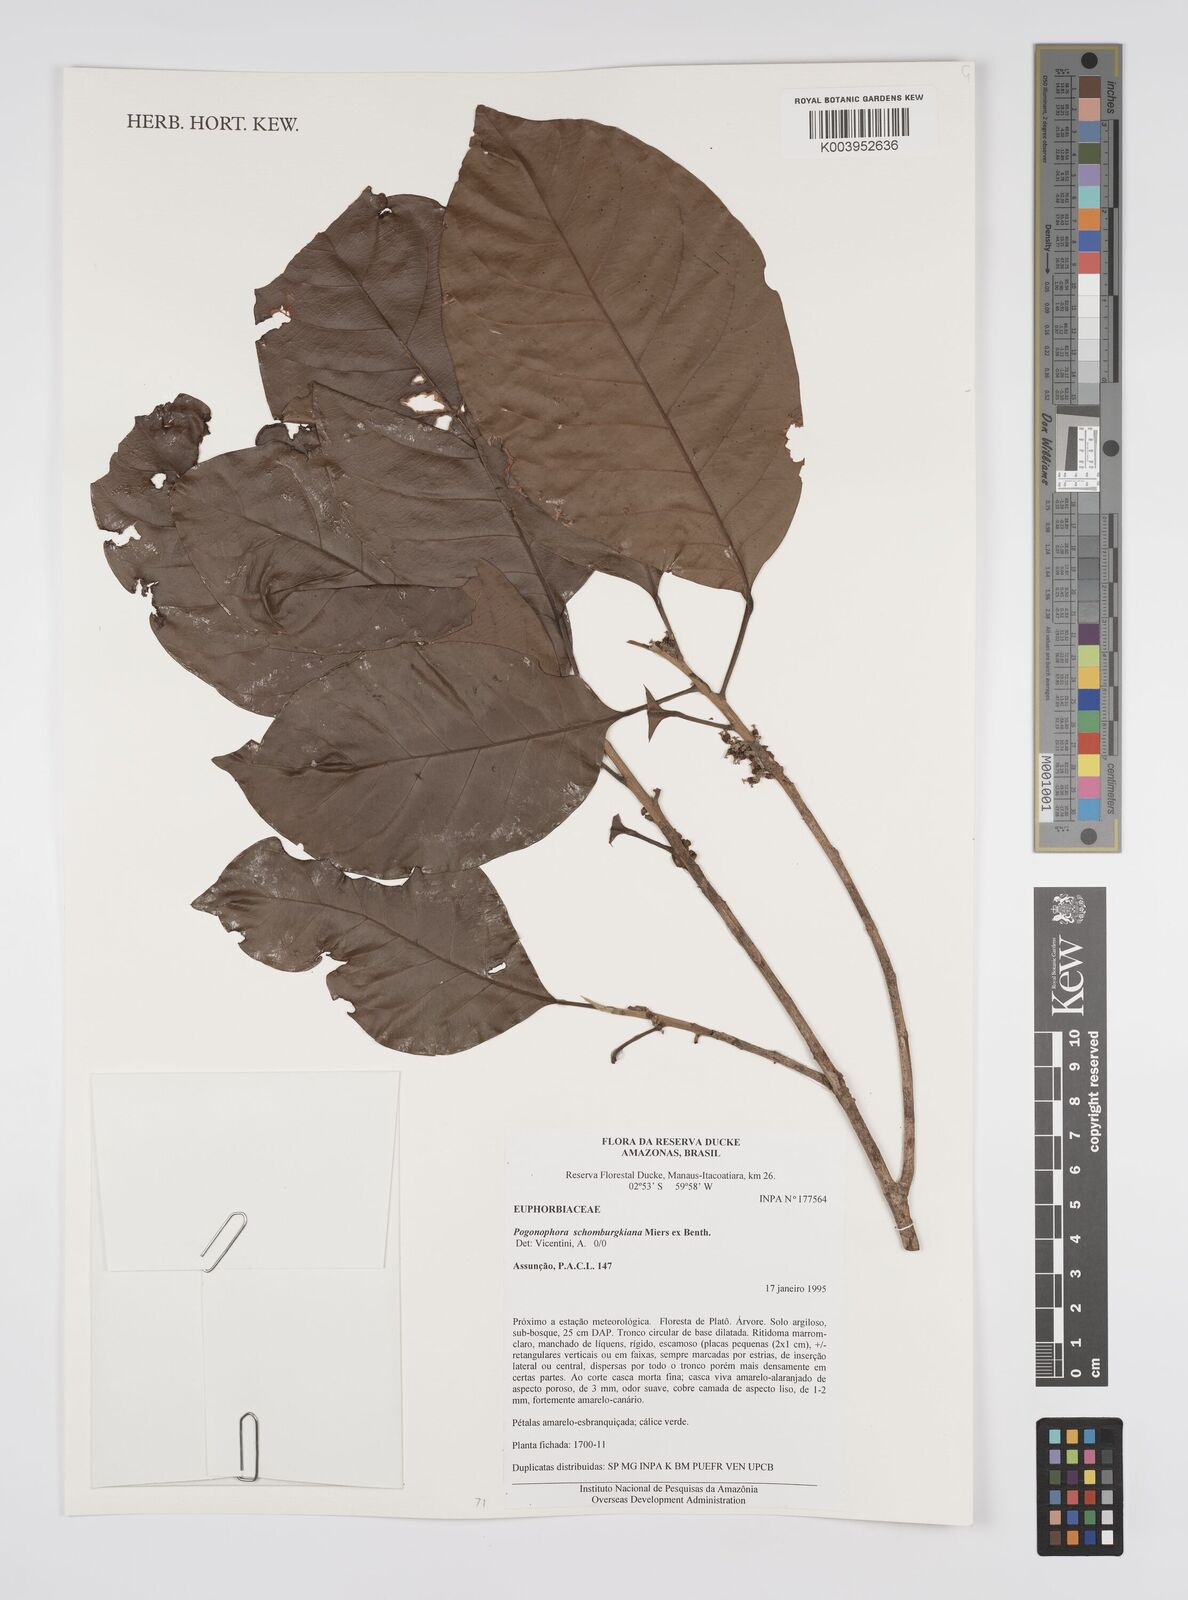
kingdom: Plantae
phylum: Tracheophyta
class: Magnoliopsida
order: Malpighiales
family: Peraceae
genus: Pogonophora
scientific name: Pogonophora schomburgkiana
